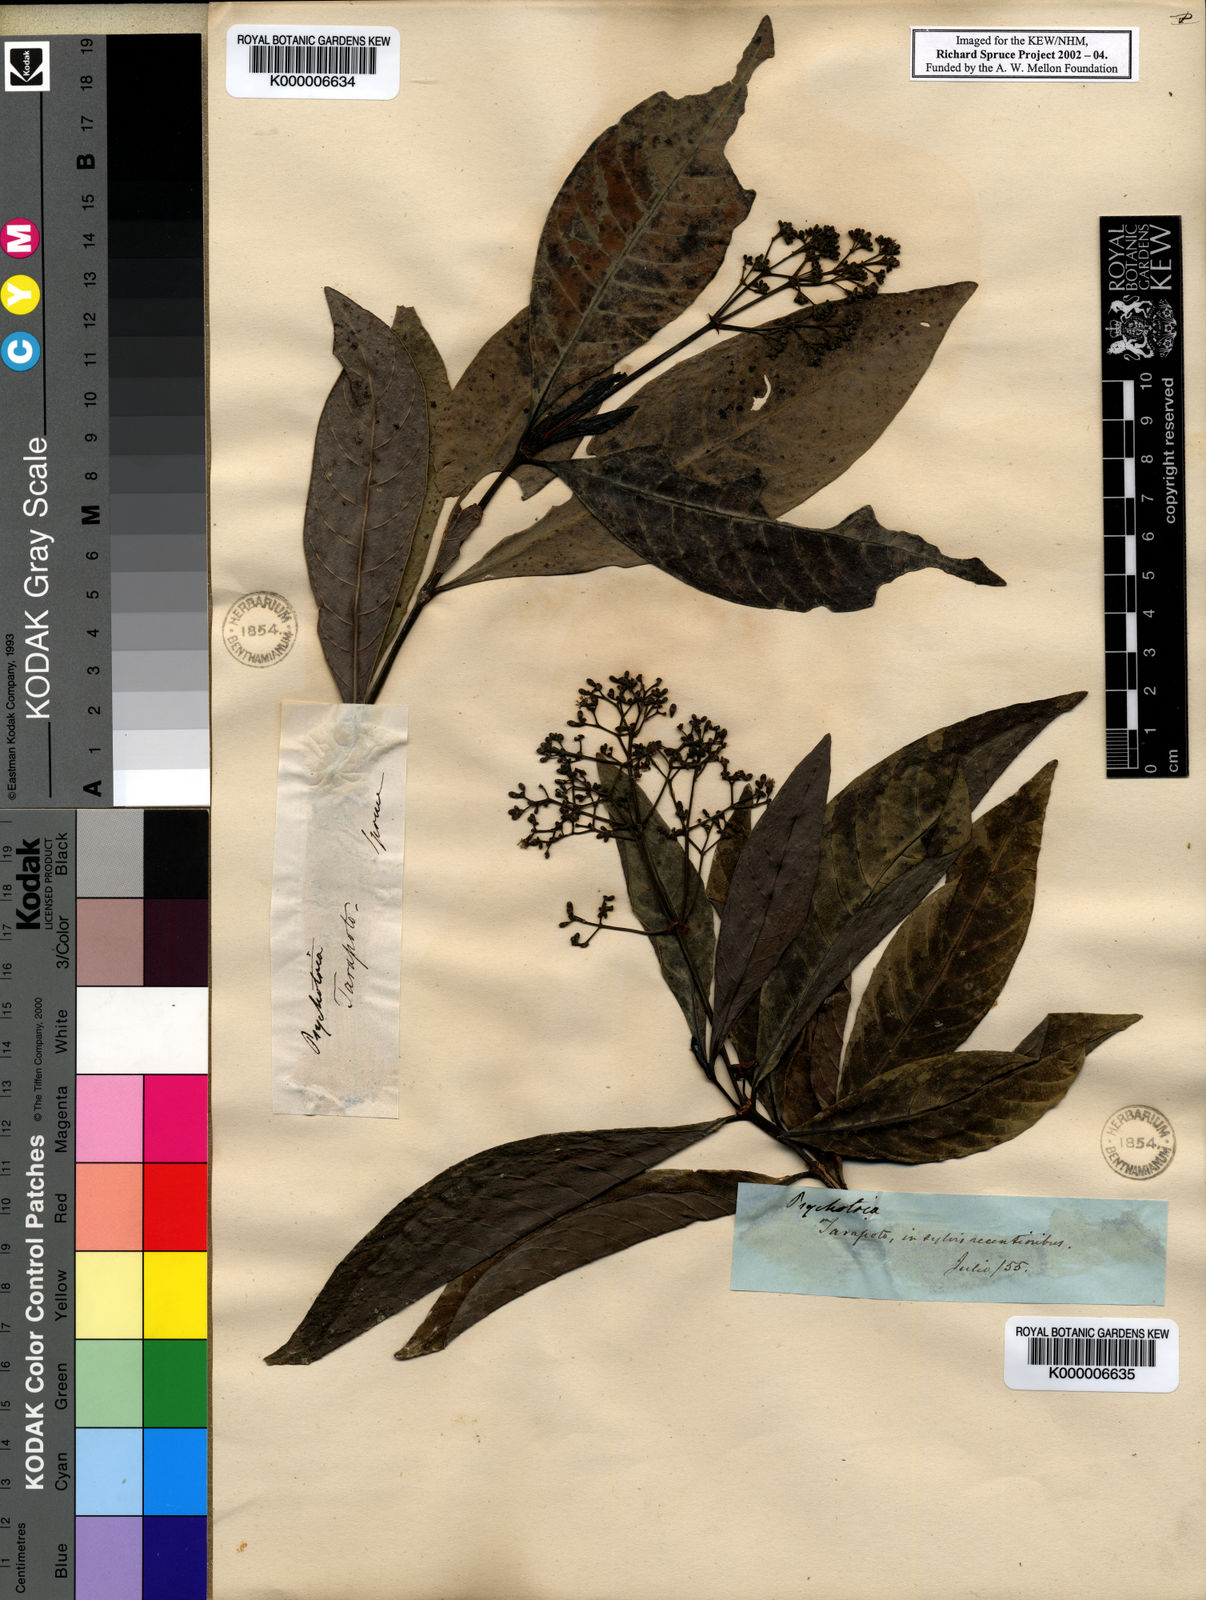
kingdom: Plantae
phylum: Tracheophyta
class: Magnoliopsida
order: Gentianales
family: Rubiaceae
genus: Psychotria
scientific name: Psychotria carthagenensis
